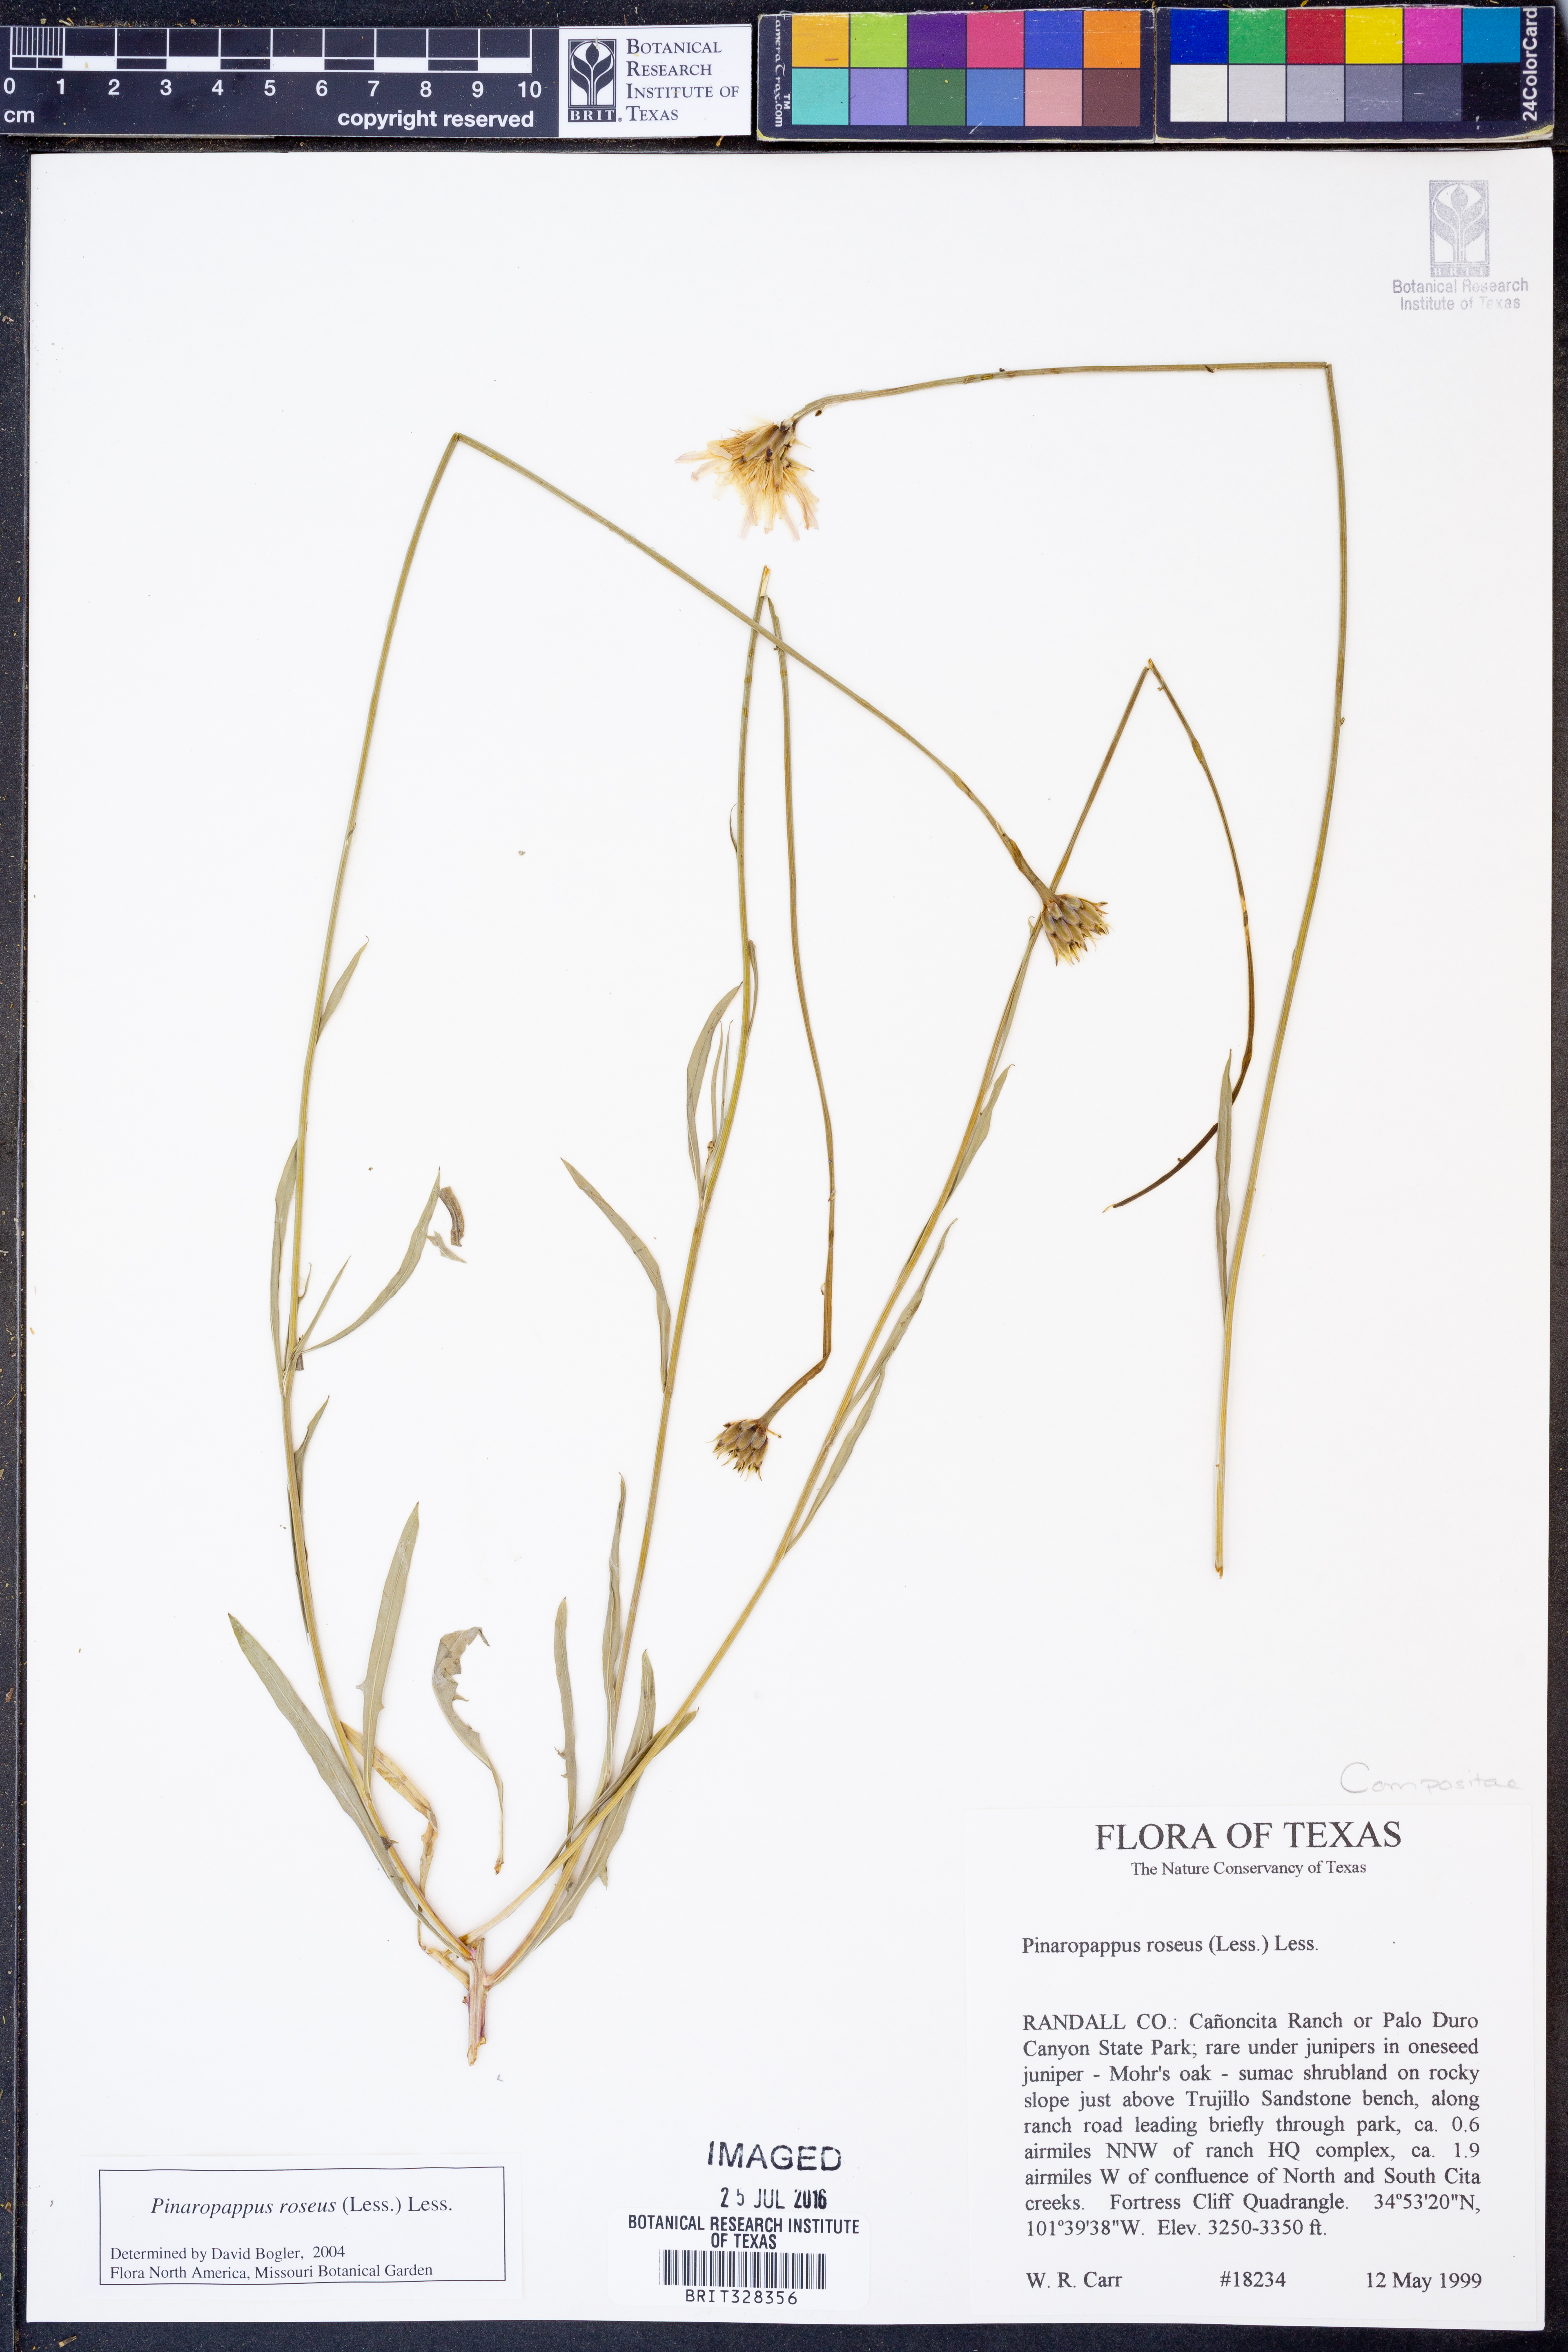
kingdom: Plantae
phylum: Tracheophyta
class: Magnoliopsida
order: Asterales
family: Asteraceae
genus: Pinaropappus
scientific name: Pinaropappus roseus
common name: Rock-lettuce
